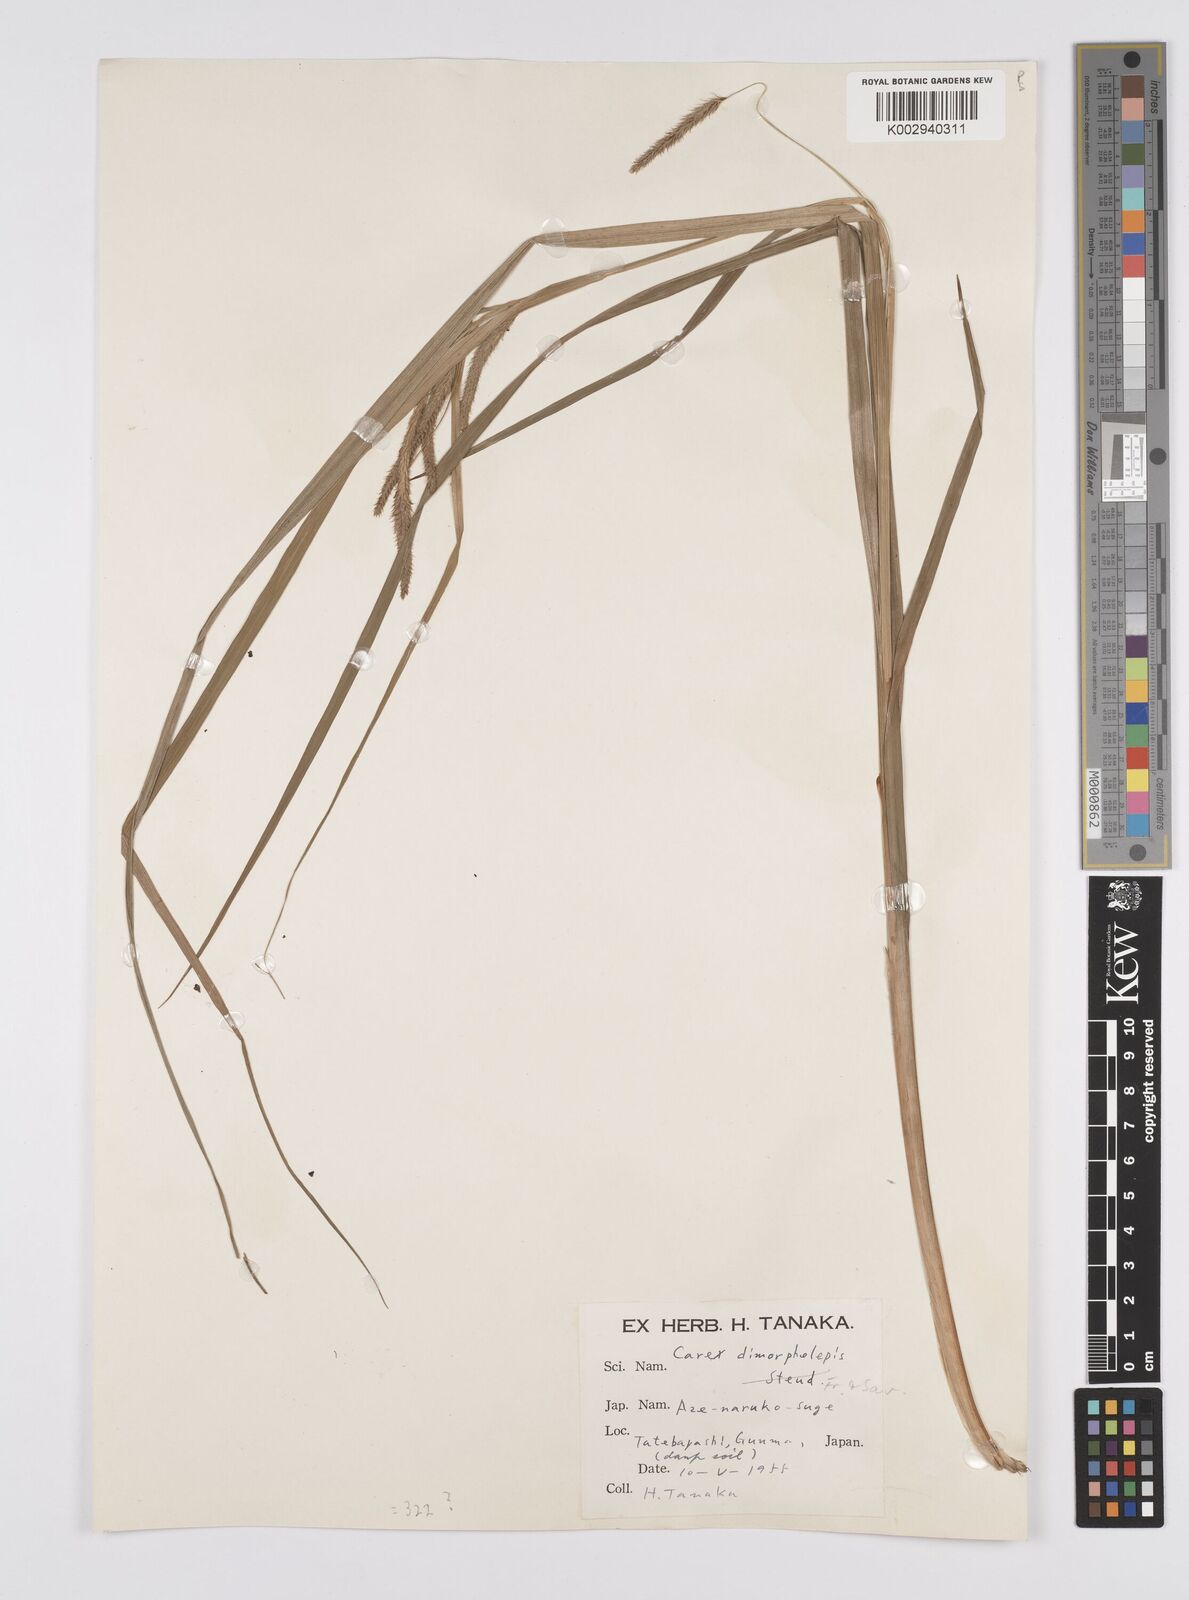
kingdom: Plantae
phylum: Tracheophyta
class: Liliopsida
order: Poales
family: Cyperaceae
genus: Carex
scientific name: Carex dimorpholepis
